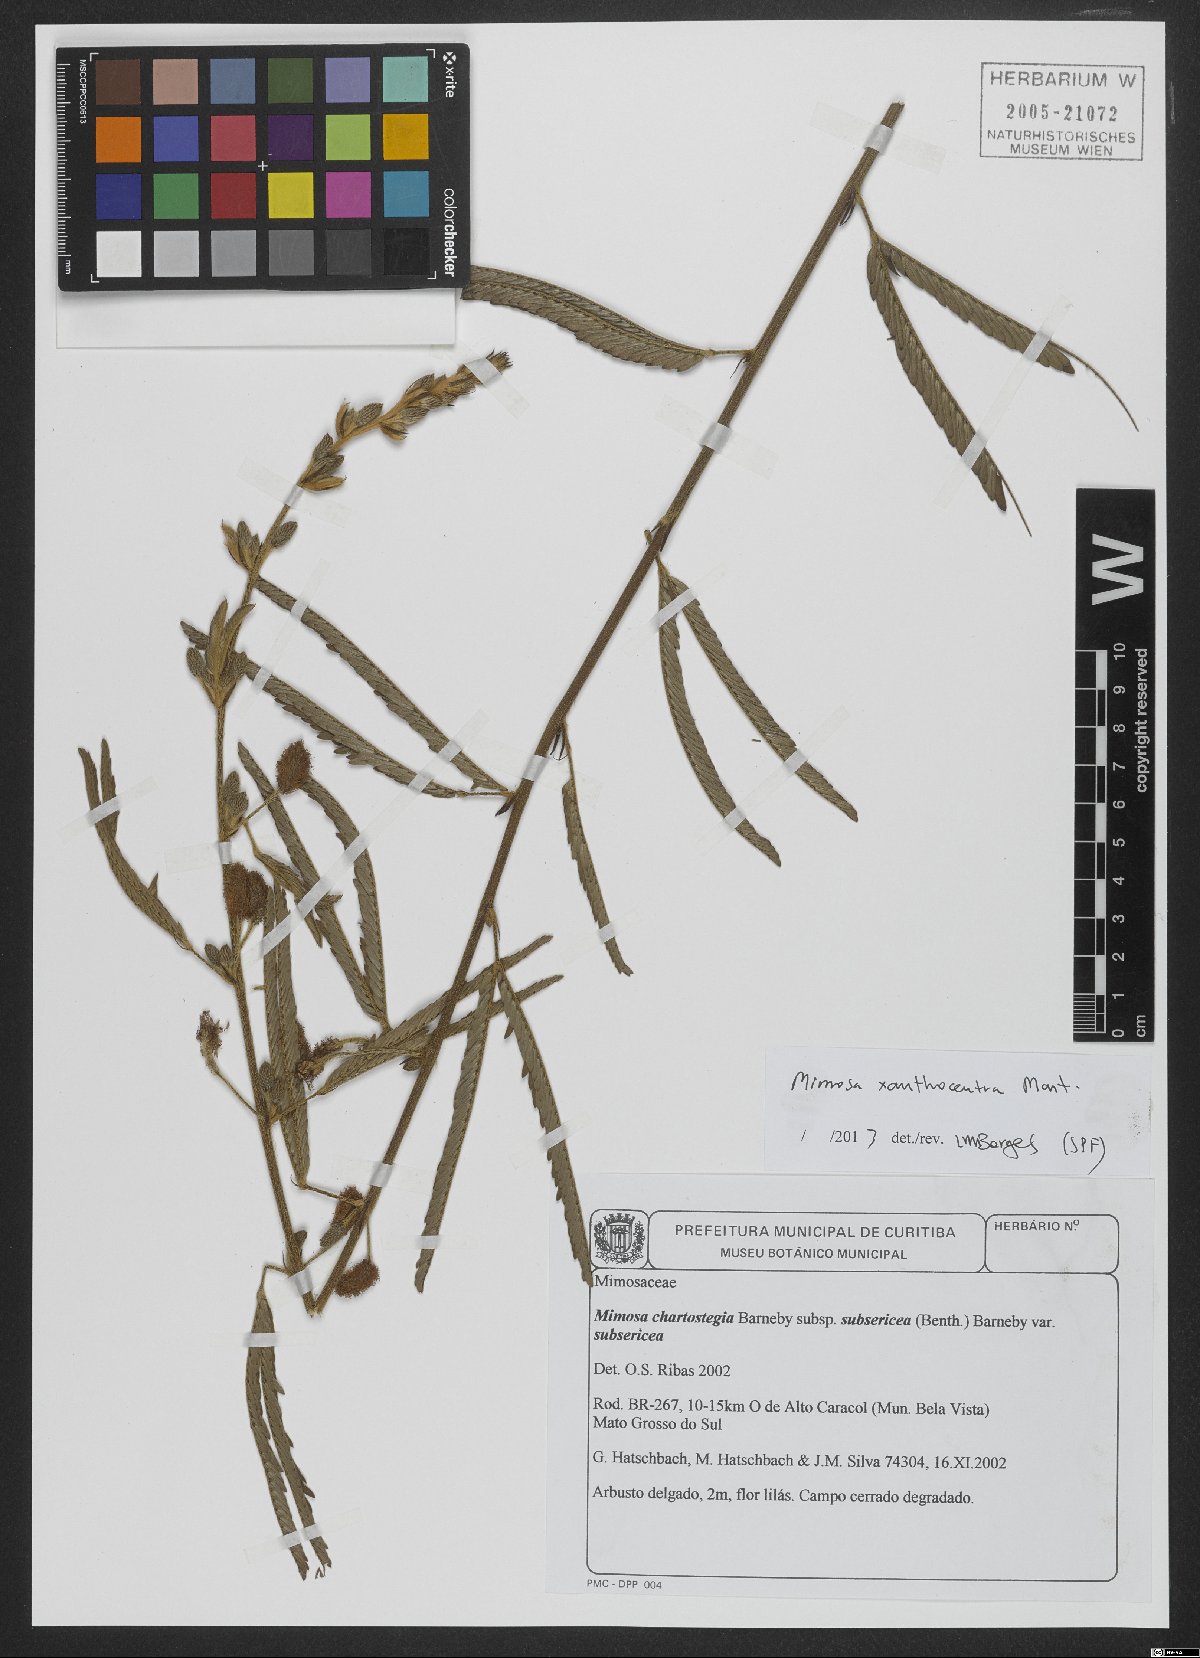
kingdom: Plantae
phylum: Tracheophyta
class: Magnoliopsida
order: Fabales
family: Fabaceae
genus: Mimosa
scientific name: Mimosa xanthocentra
